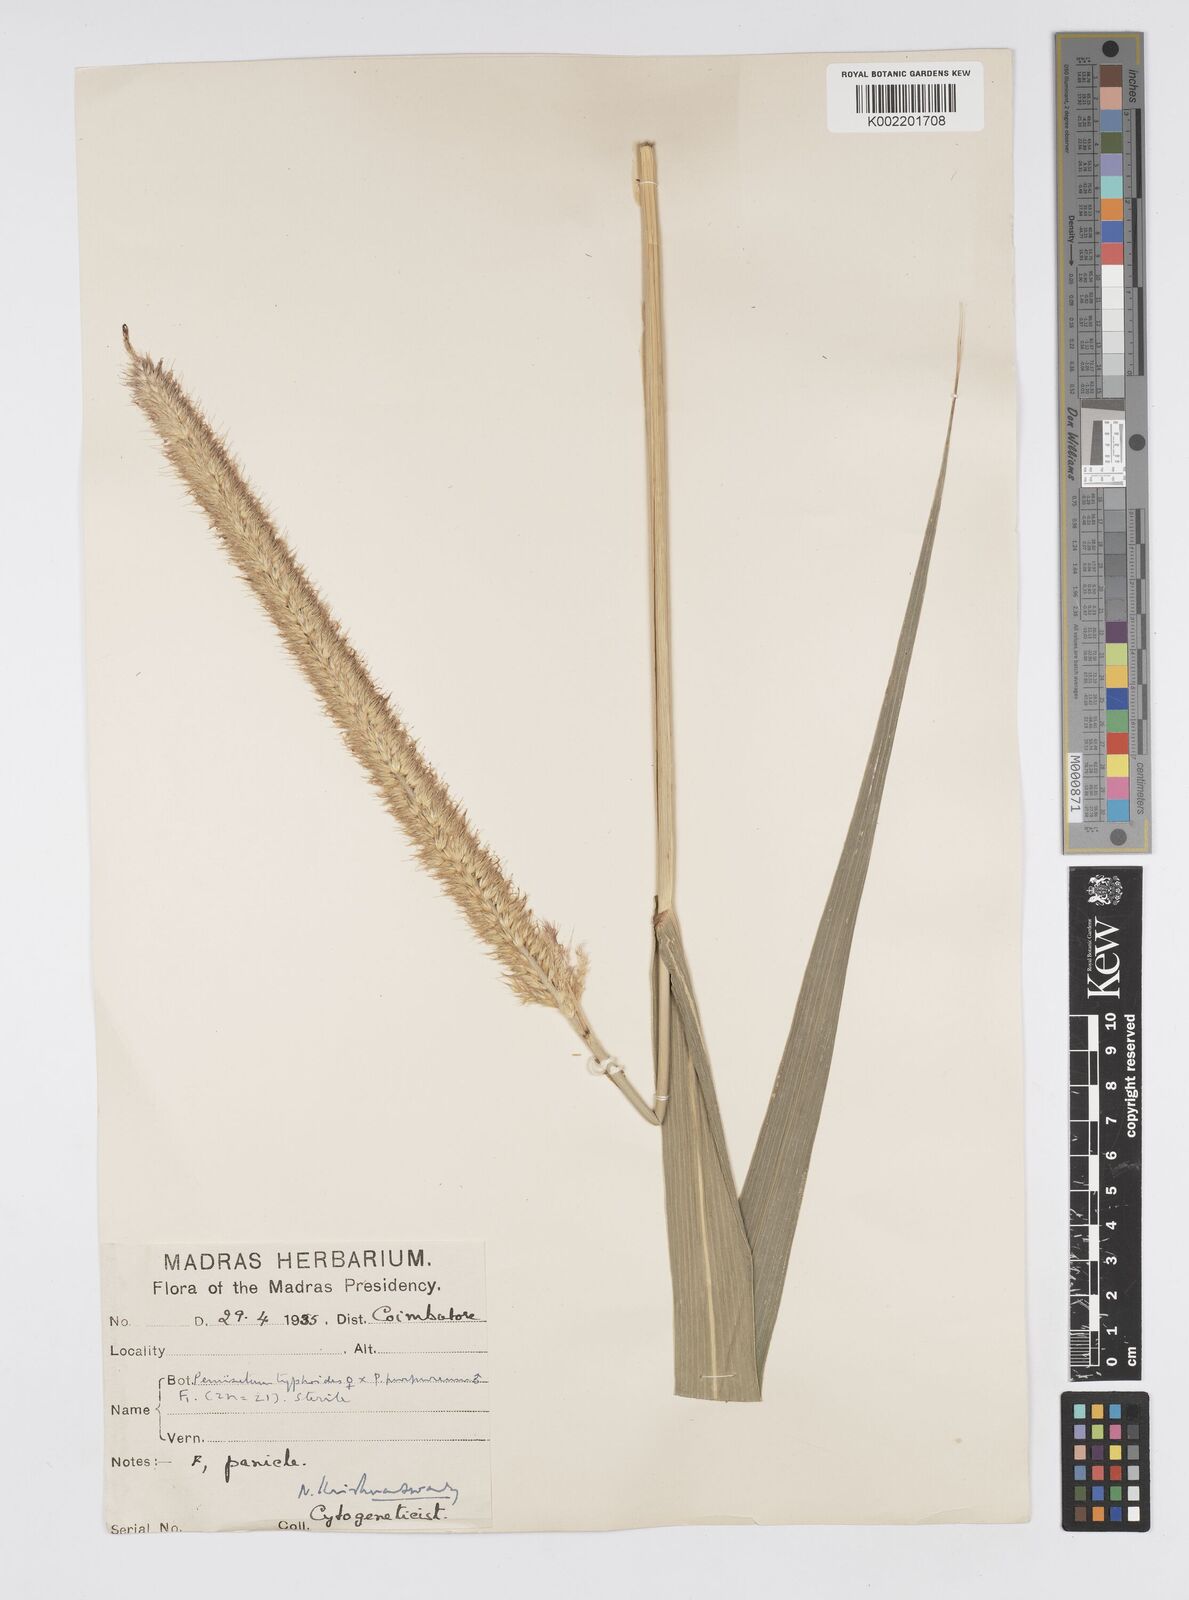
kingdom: Plantae
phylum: Tracheophyta
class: Liliopsida
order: Poales
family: Poaceae
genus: Cenchrus
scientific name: Cenchrus purpureus
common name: Elephant grass
